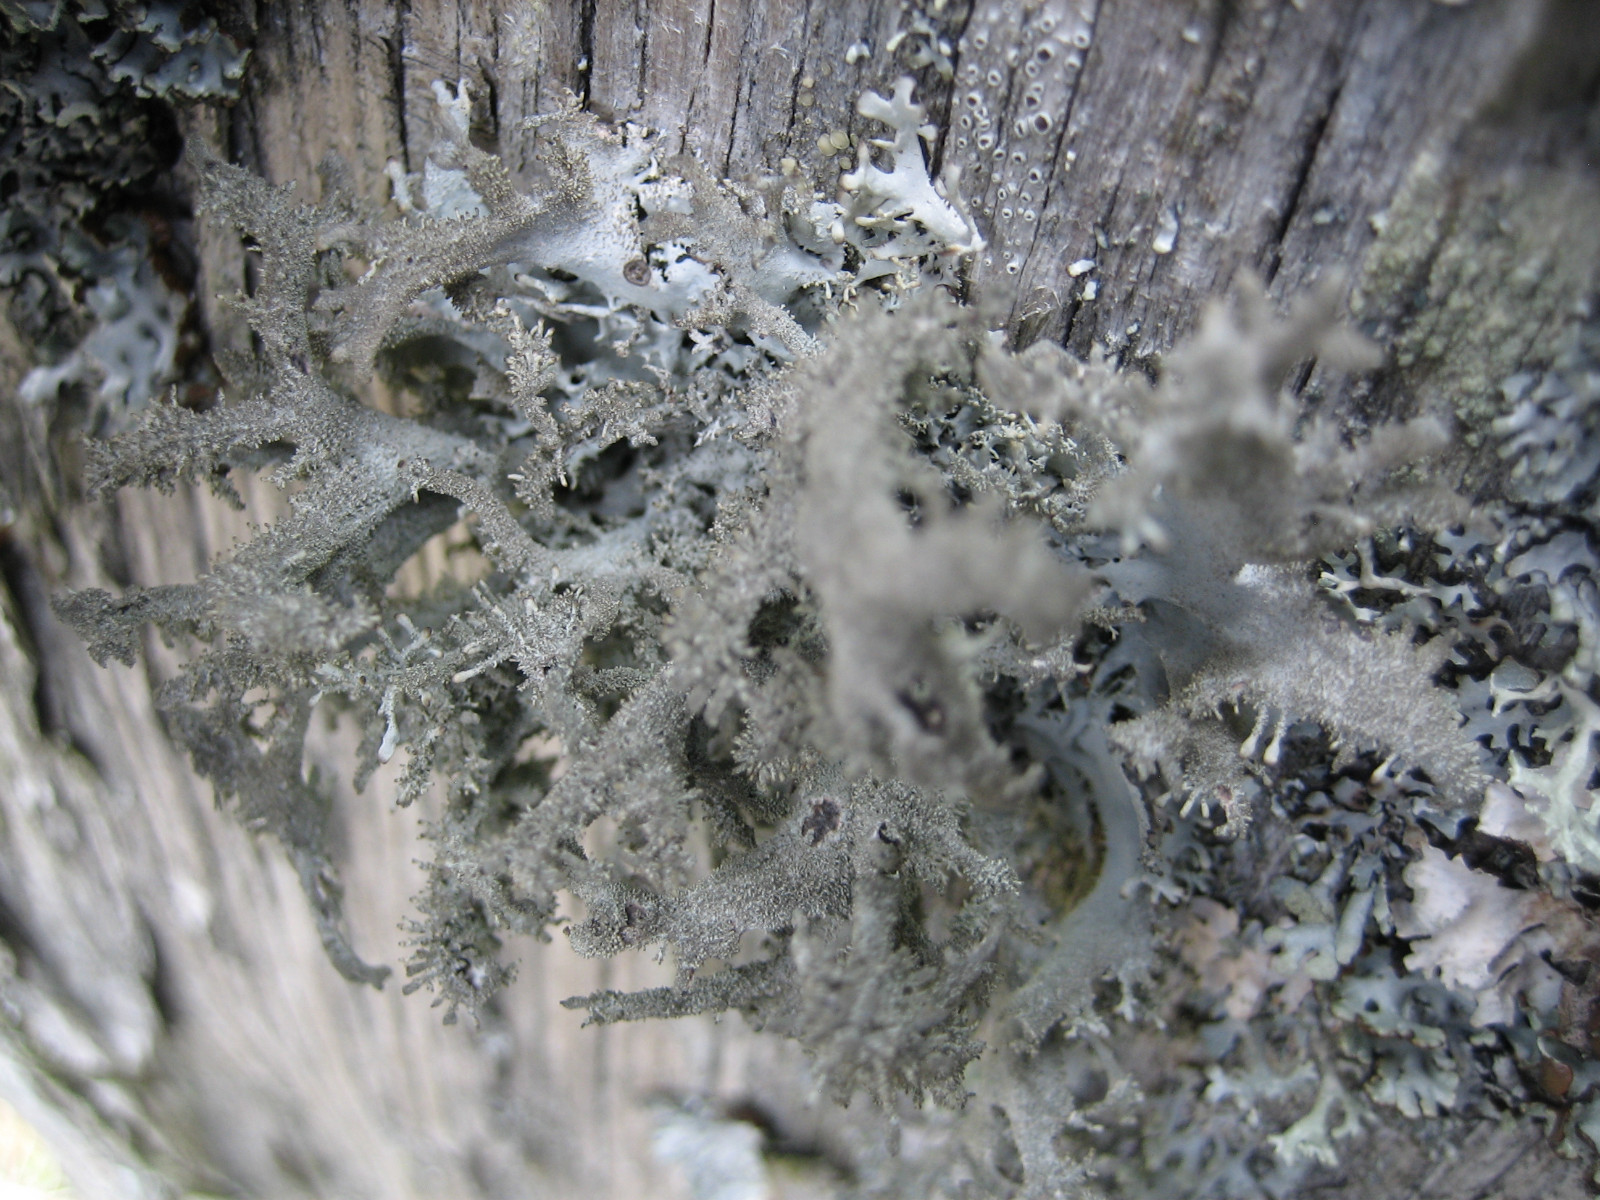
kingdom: Fungi
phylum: Ascomycota
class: Lecanoromycetes
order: Lecanorales
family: Parmeliaceae
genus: Pseudevernia
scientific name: Pseudevernia furfuracea
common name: grå fyrrelav
